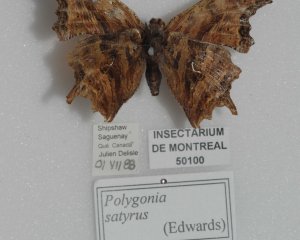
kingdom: Animalia
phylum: Arthropoda
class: Insecta
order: Lepidoptera
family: Nymphalidae
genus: Polygonia
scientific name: Polygonia satyrus
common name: Satyr Comma
